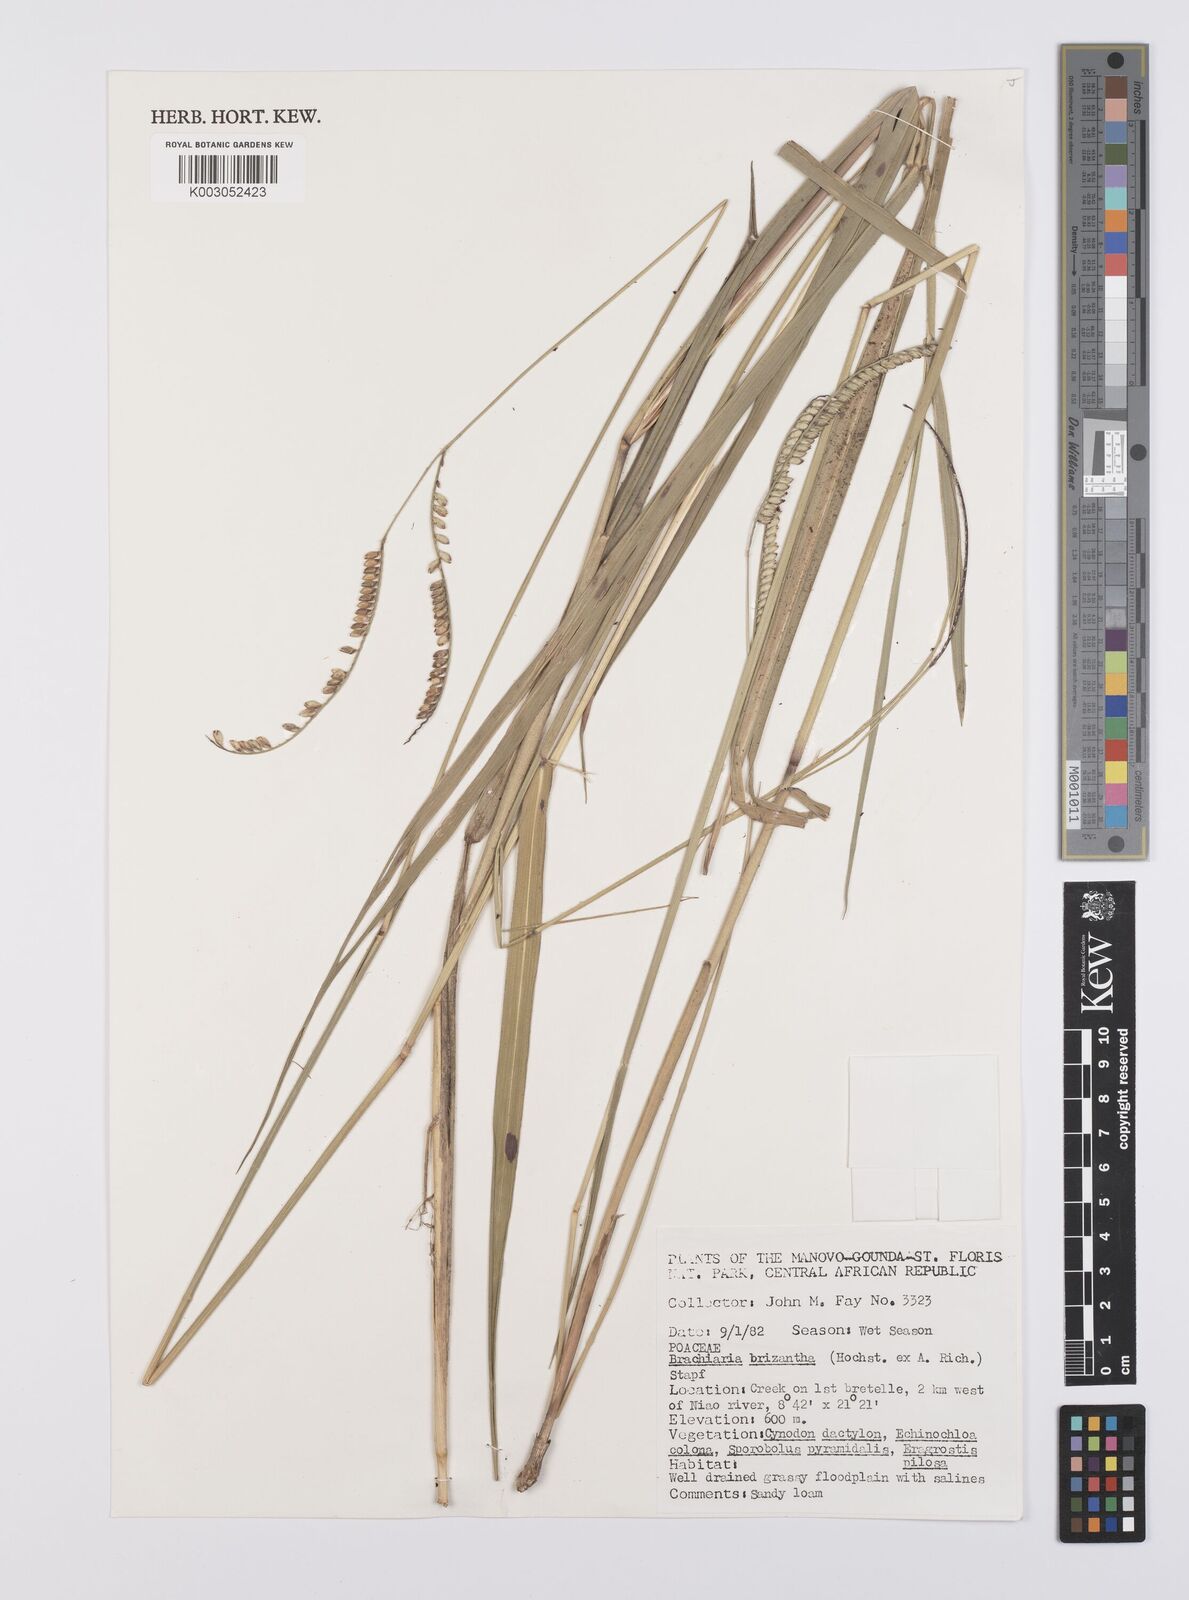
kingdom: Plantae
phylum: Tracheophyta
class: Liliopsida
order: Poales
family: Poaceae
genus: Urochloa
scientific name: Urochloa brizantha
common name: Palisade signalgrass
